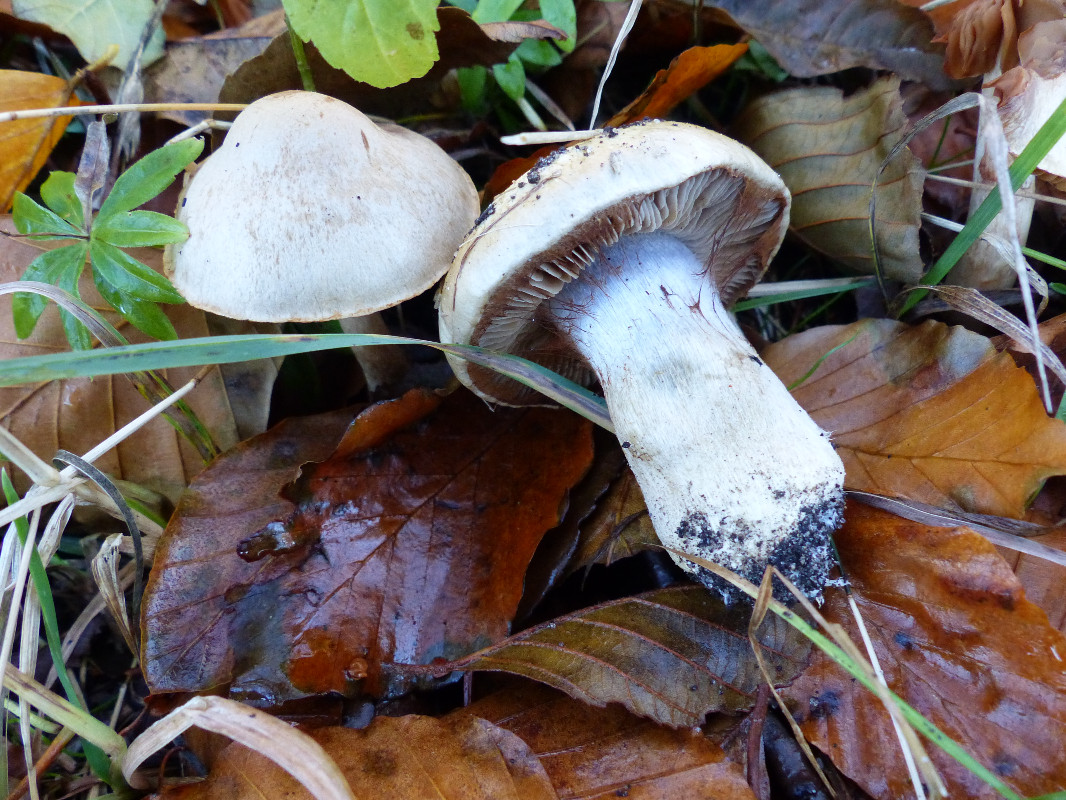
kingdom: Fungi
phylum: Basidiomycota
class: Agaricomycetes
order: Agaricales
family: Cortinariaceae
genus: Cortinarius
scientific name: Cortinarius
